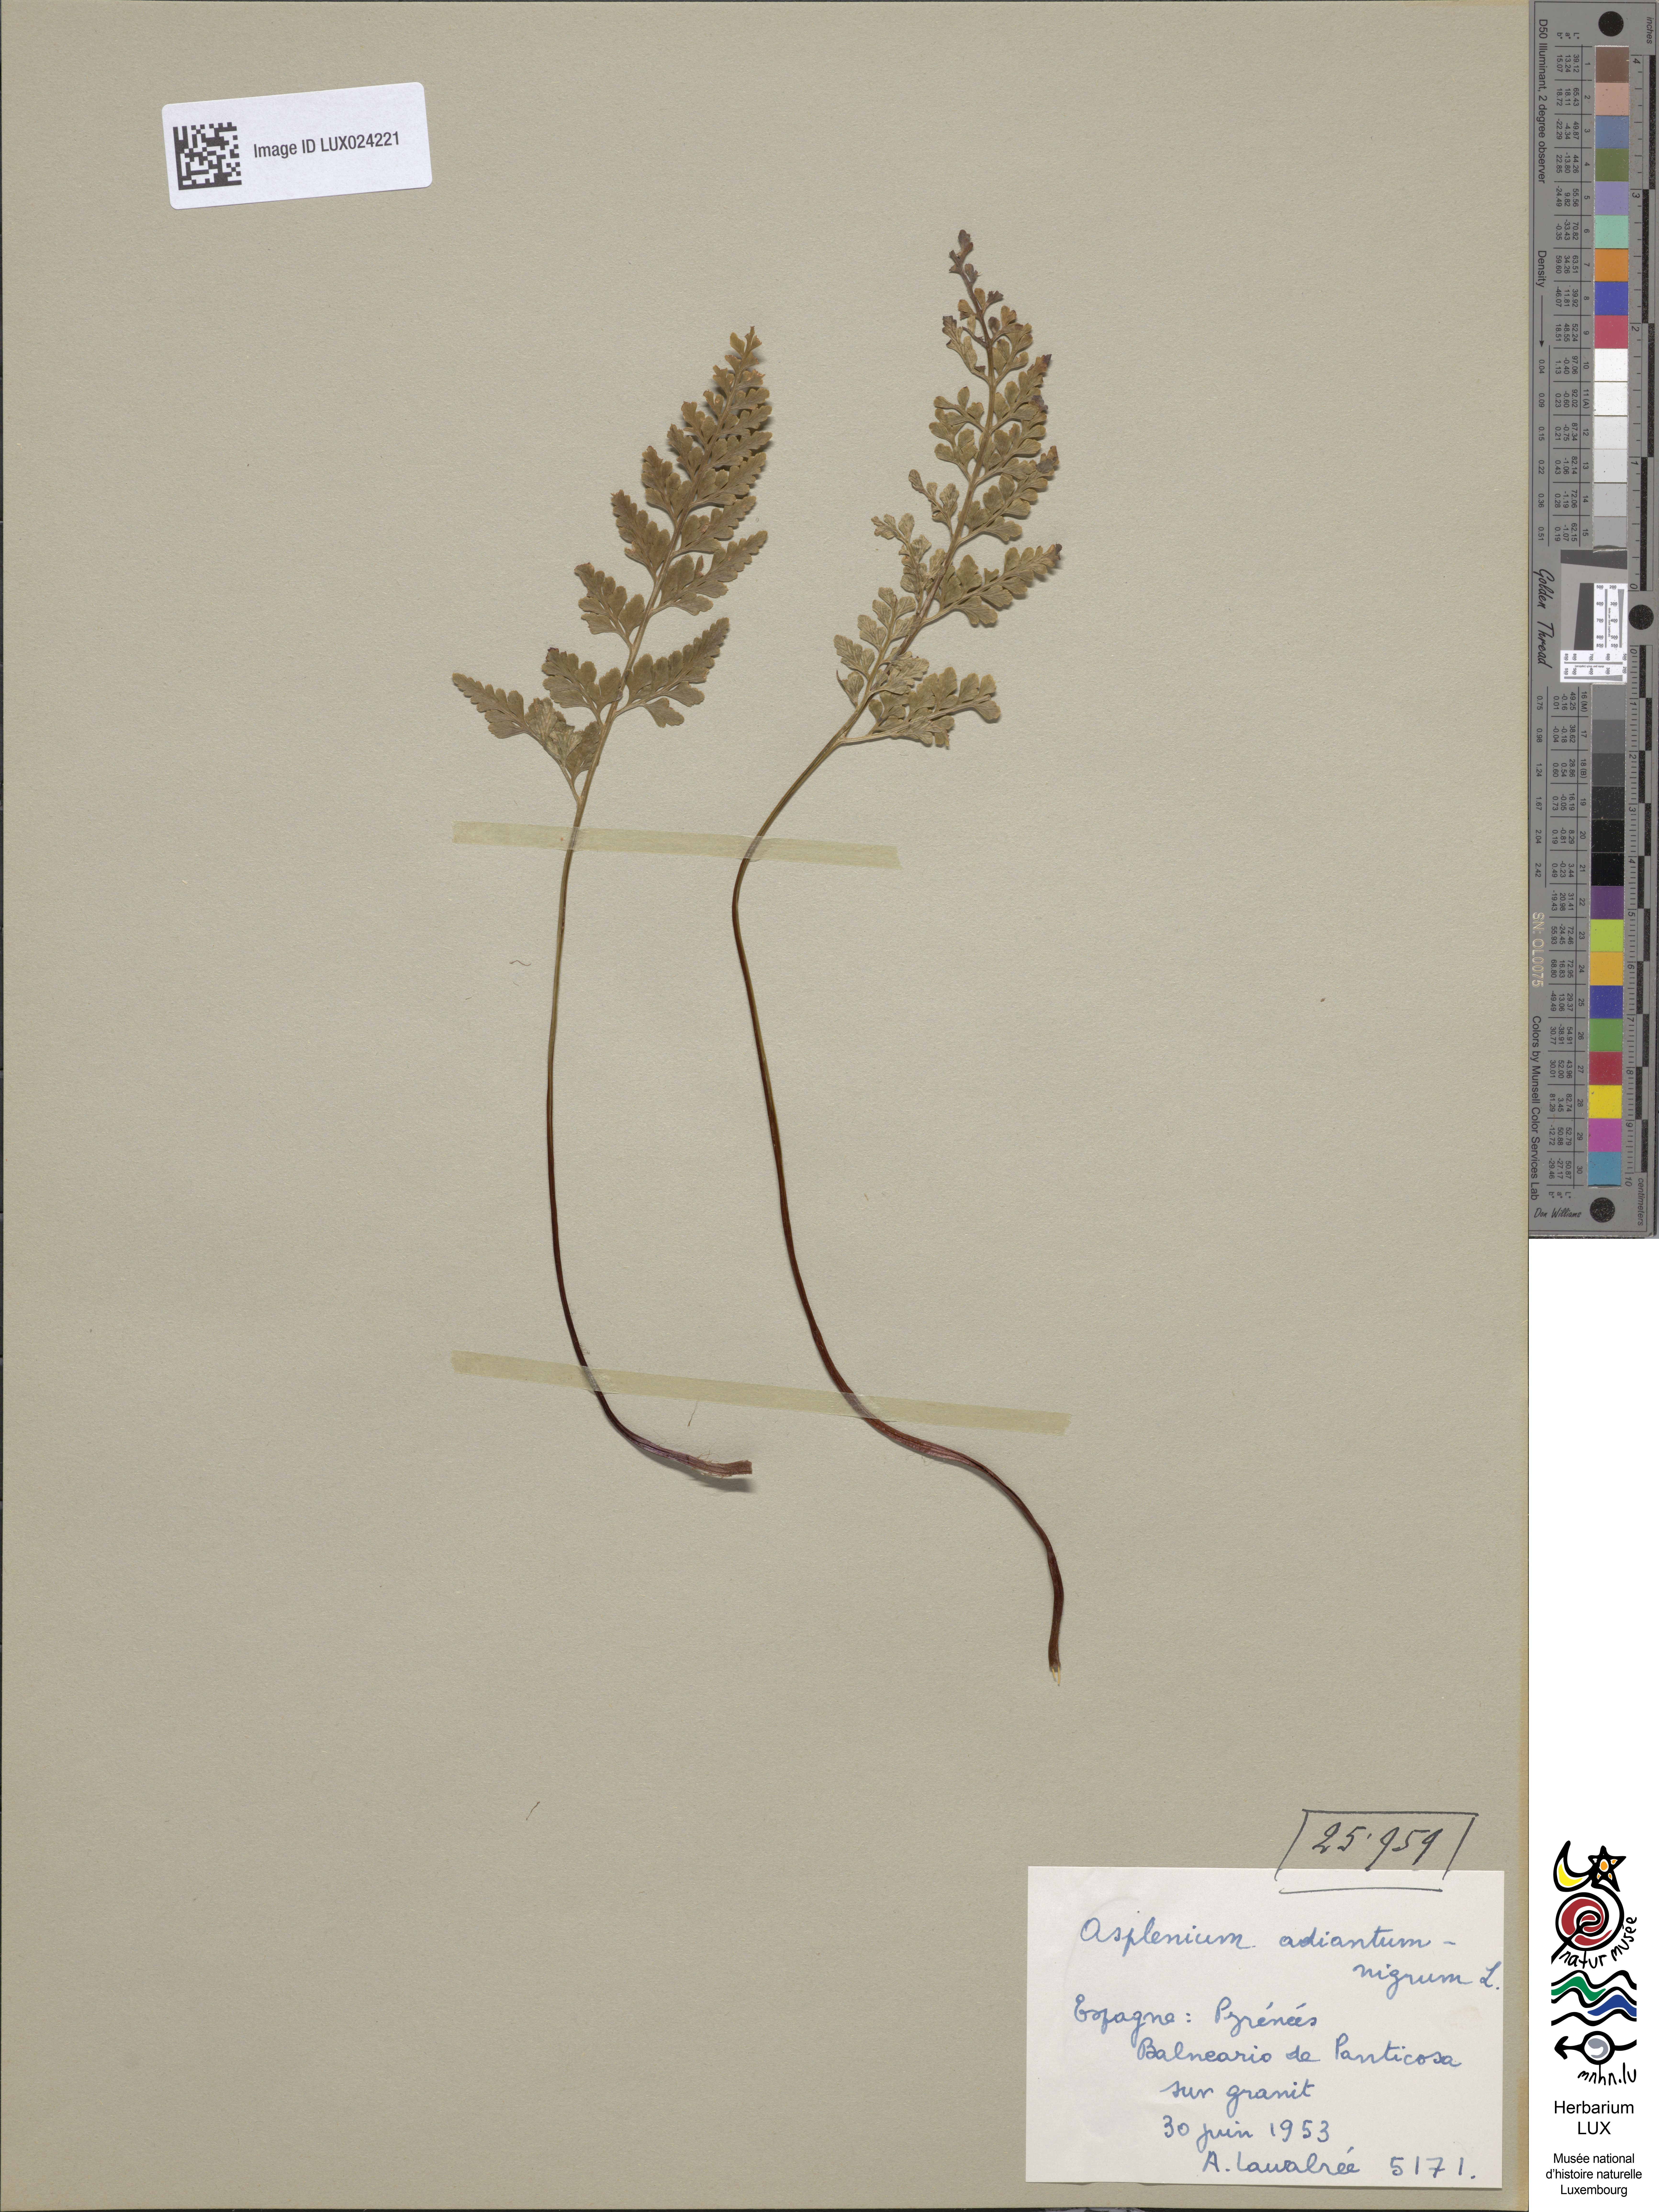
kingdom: Plantae
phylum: Tracheophyta
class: Polypodiopsida
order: Polypodiales
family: Aspleniaceae
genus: Asplenium
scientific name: Asplenium adiantum-nigrum
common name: Black spleenwort
